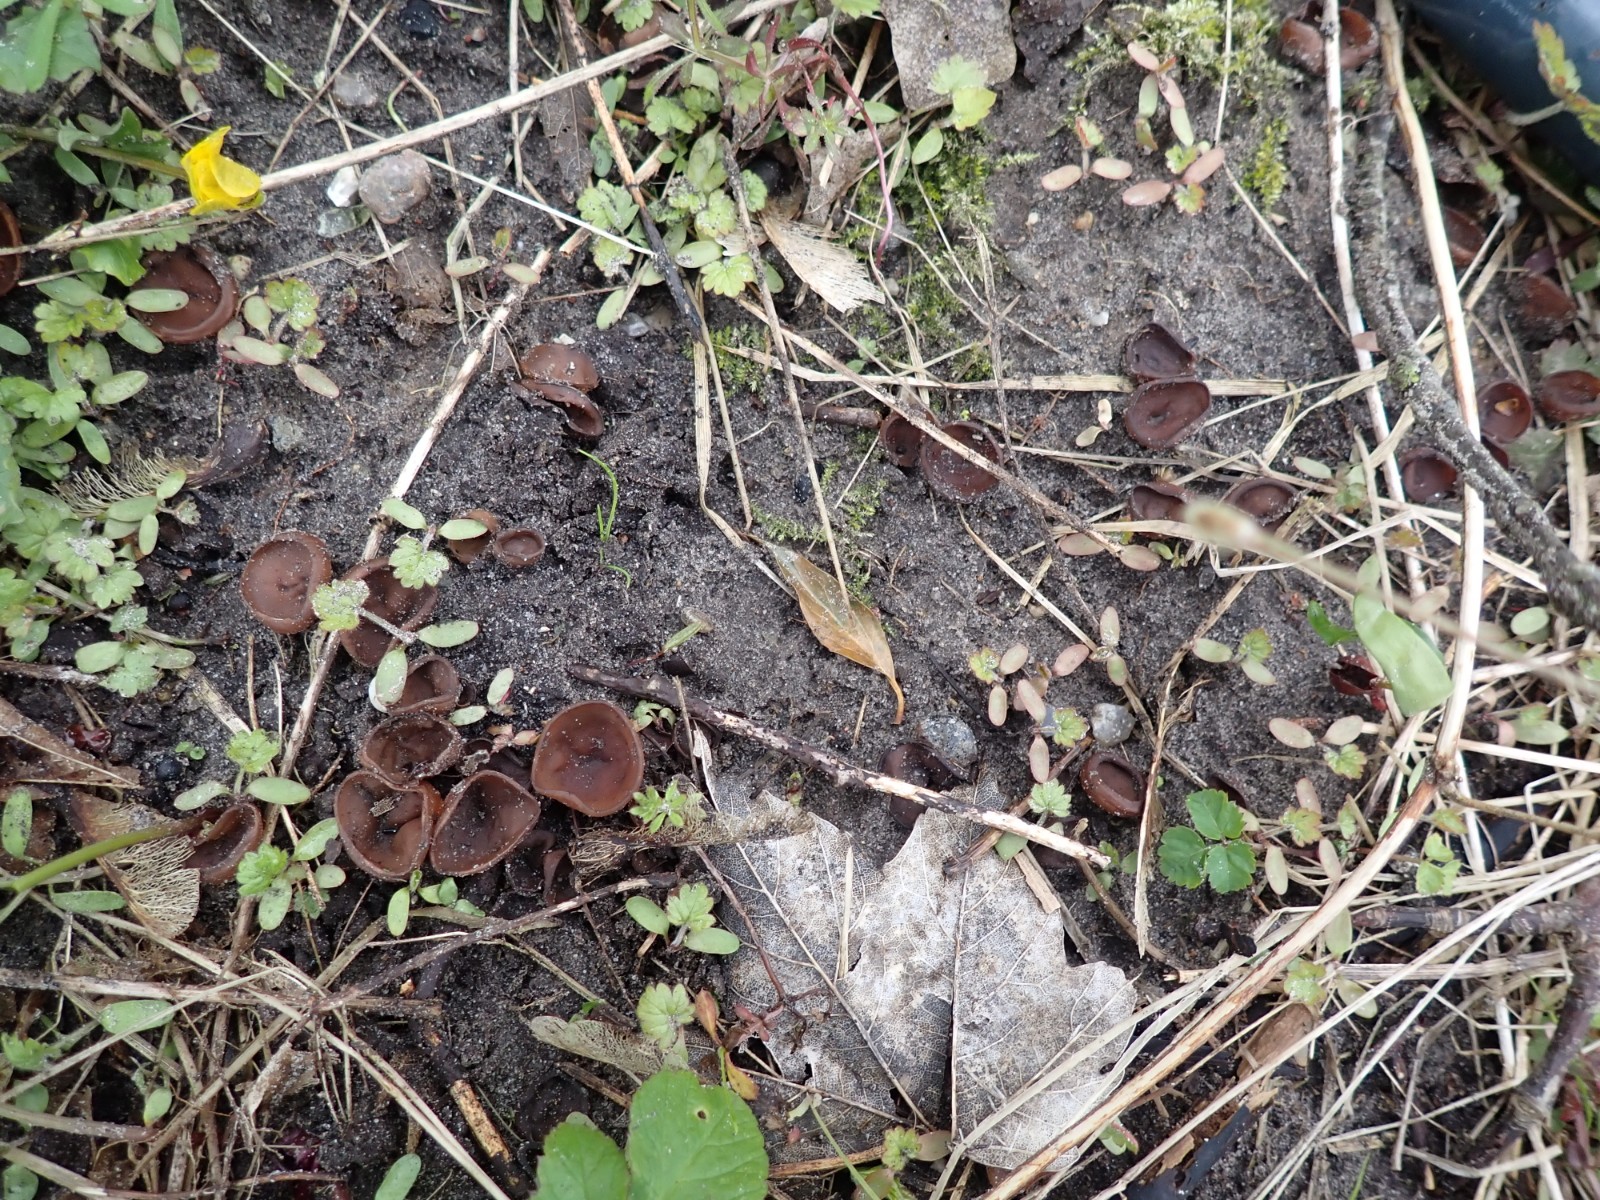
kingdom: Fungi
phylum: Ascomycota
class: Leotiomycetes
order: Helotiales
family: Sclerotiniaceae
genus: Dumontinia
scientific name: Dumontinia tuberosa
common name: anemone-knoldskive
